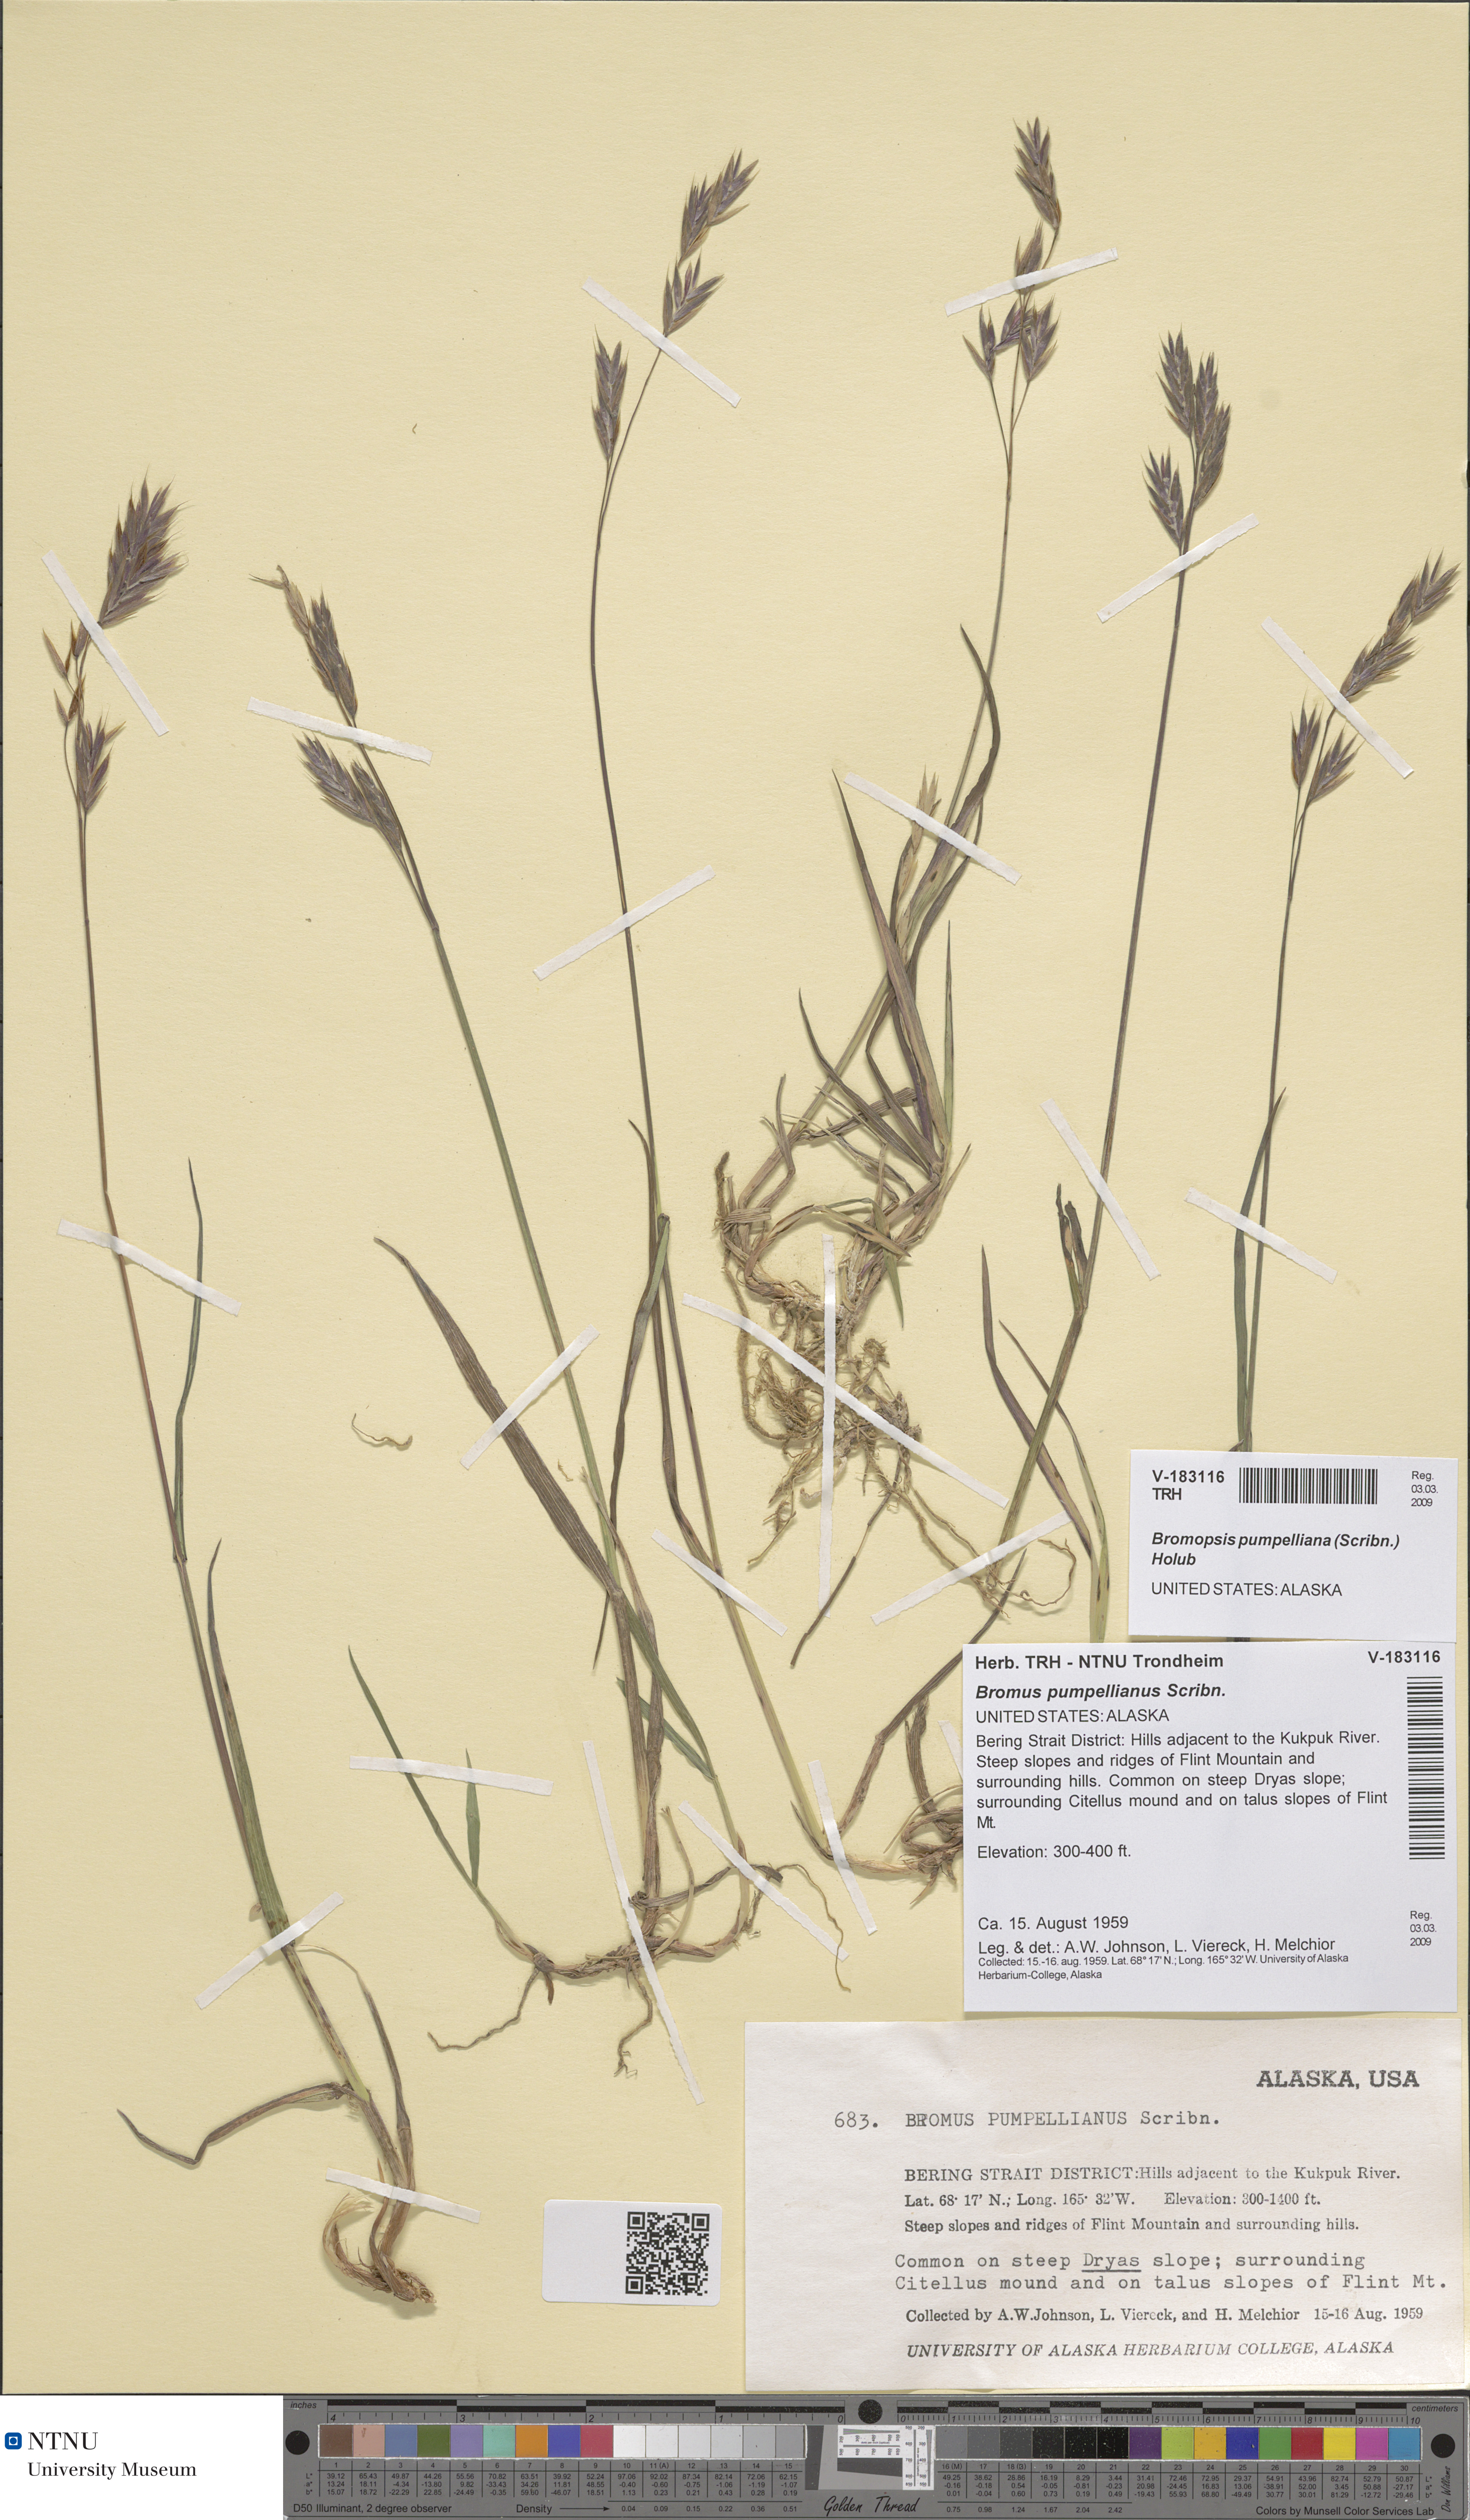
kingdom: Plantae
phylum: Tracheophyta
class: Liliopsida
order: Poales
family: Poaceae
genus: Bromus
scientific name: Bromus pumpellianus
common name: Pumpelly's brome
